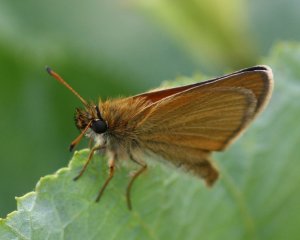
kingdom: Animalia
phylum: Arthropoda
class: Insecta
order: Lepidoptera
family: Hesperiidae
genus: Thymelicus
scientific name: Thymelicus lineola
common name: European Skipper
